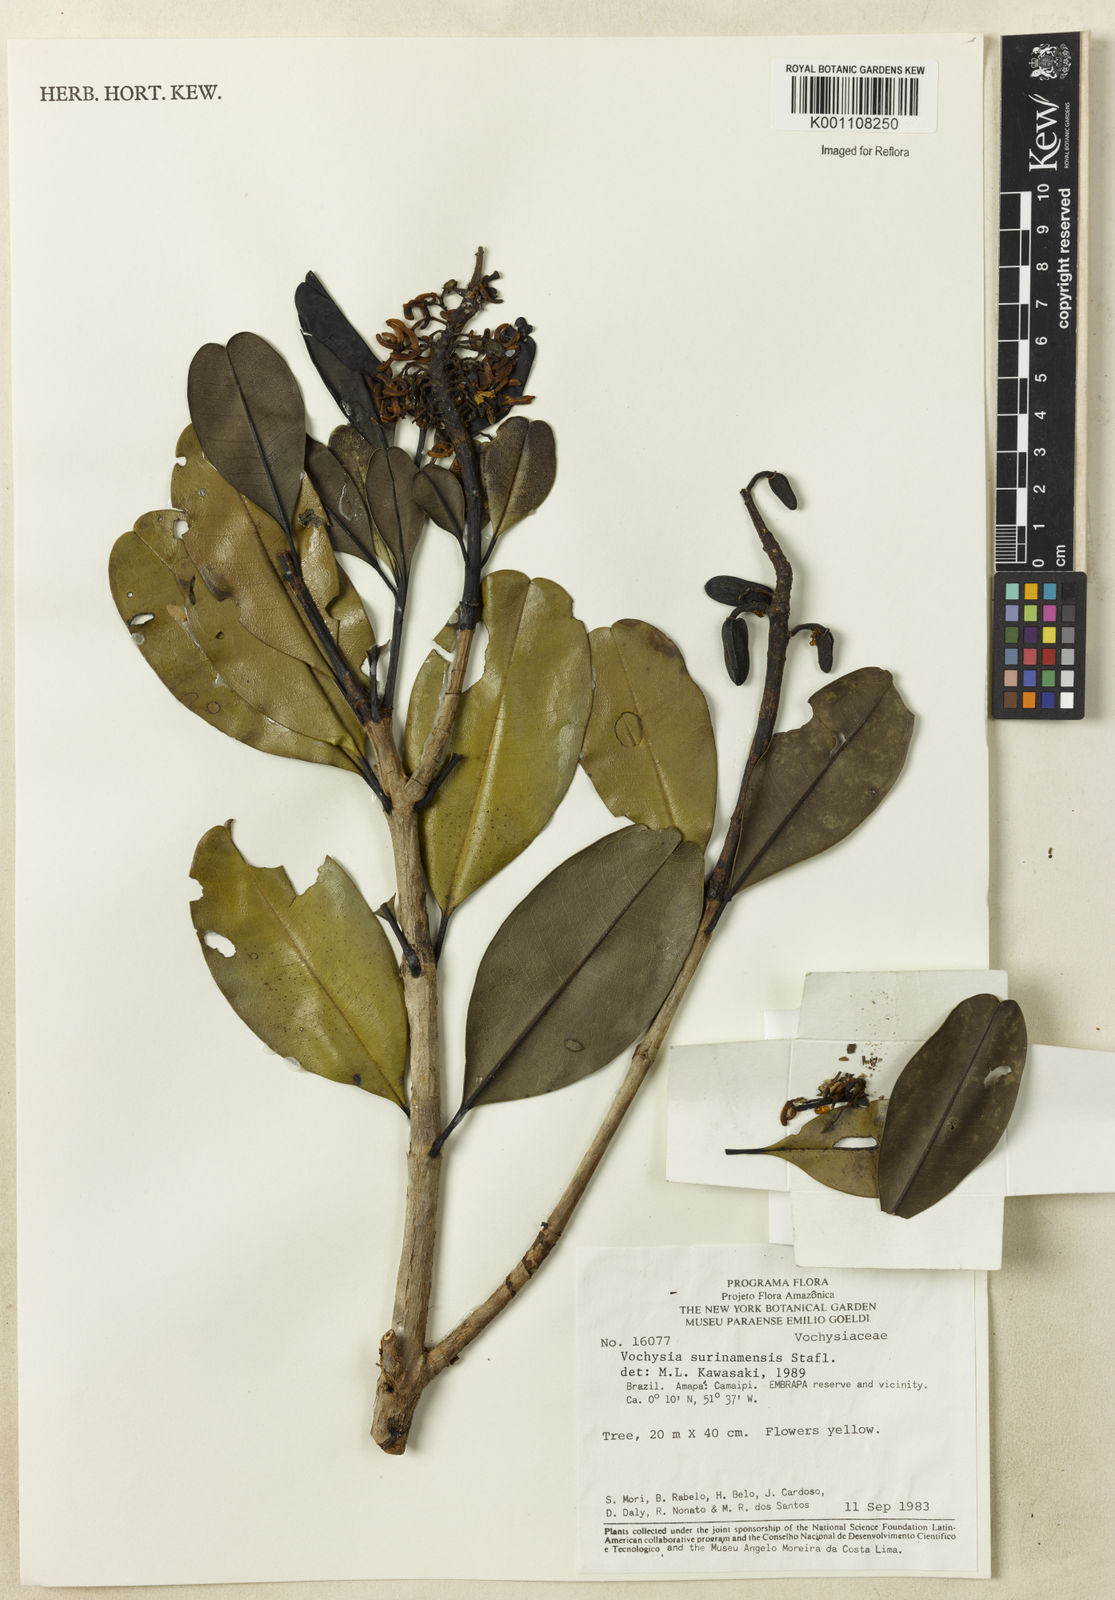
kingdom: Plantae
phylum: Tracheophyta
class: Magnoliopsida
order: Myrtales
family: Vochysiaceae
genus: Vochysia
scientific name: Vochysia surinamensis
